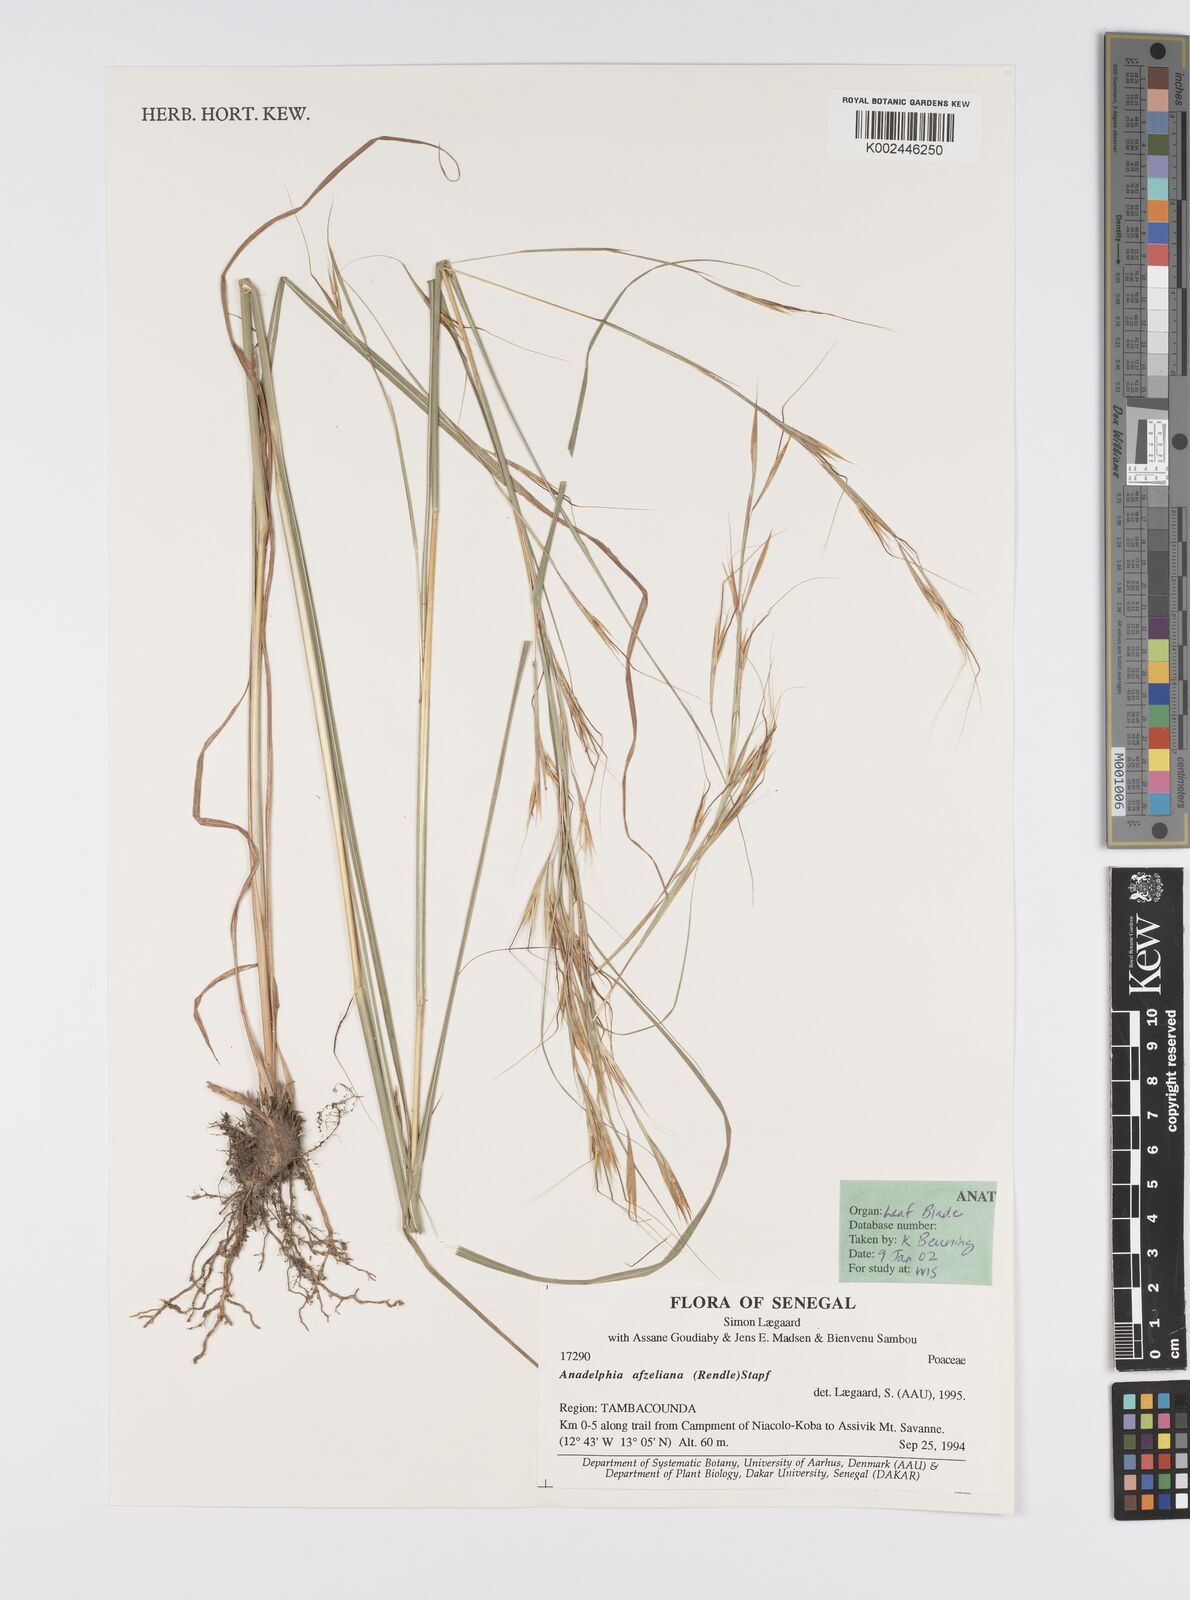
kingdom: Plantae
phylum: Tracheophyta
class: Liliopsida
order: Poales
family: Poaceae
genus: Anadelphia
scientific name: Anadelphia afzeliana
